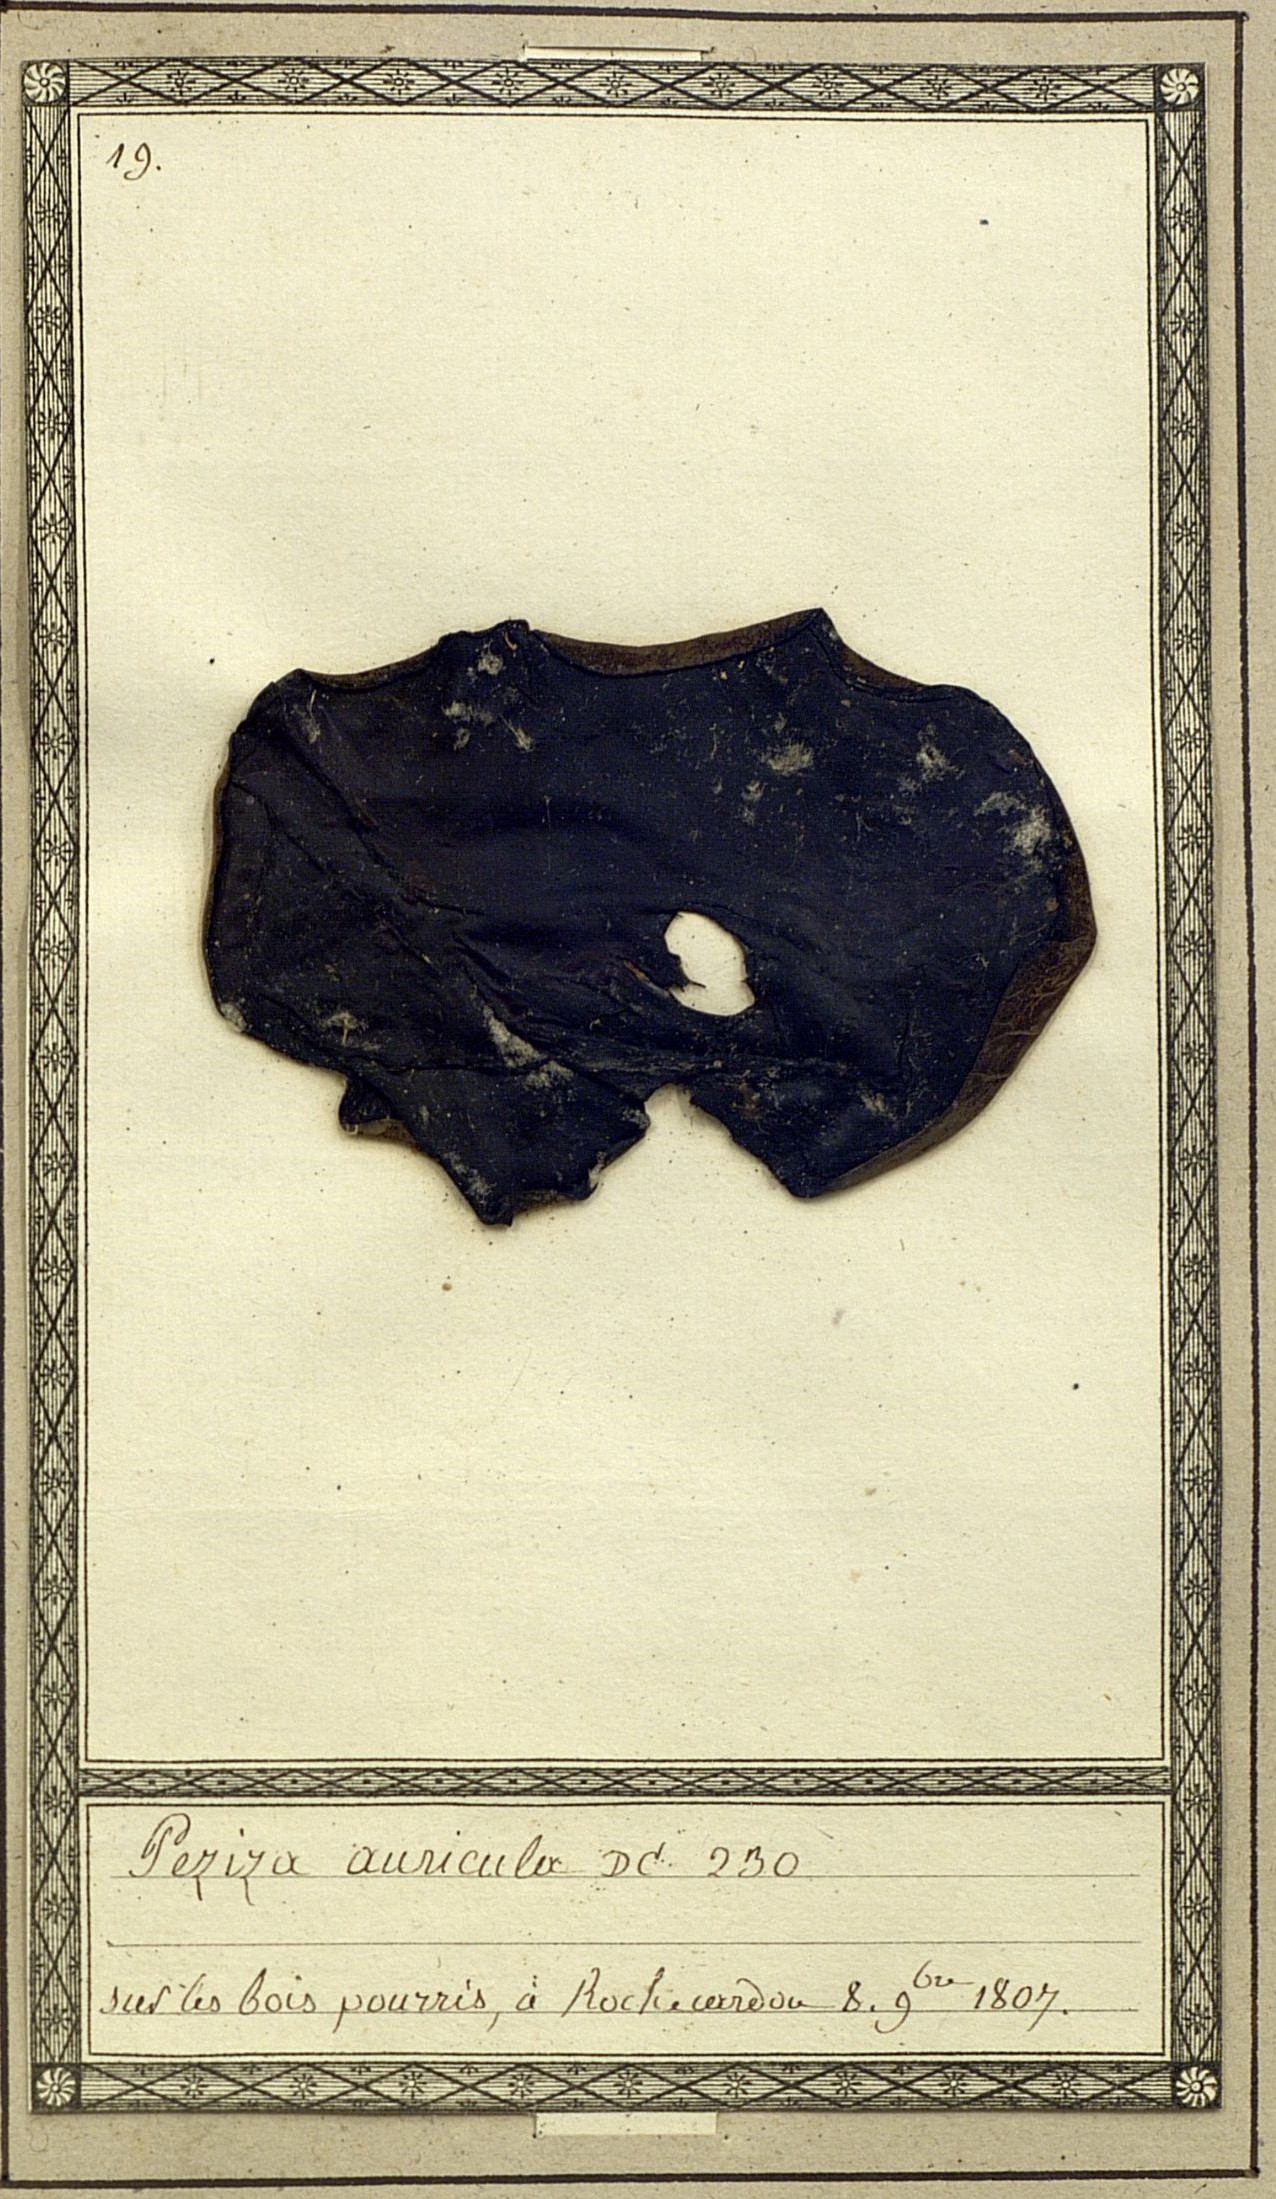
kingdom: Fungi
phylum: Ascomycota
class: Pezizomycetes
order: Pezizales
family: Helvellaceae
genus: Wynnella
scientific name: Wynnella auricula
